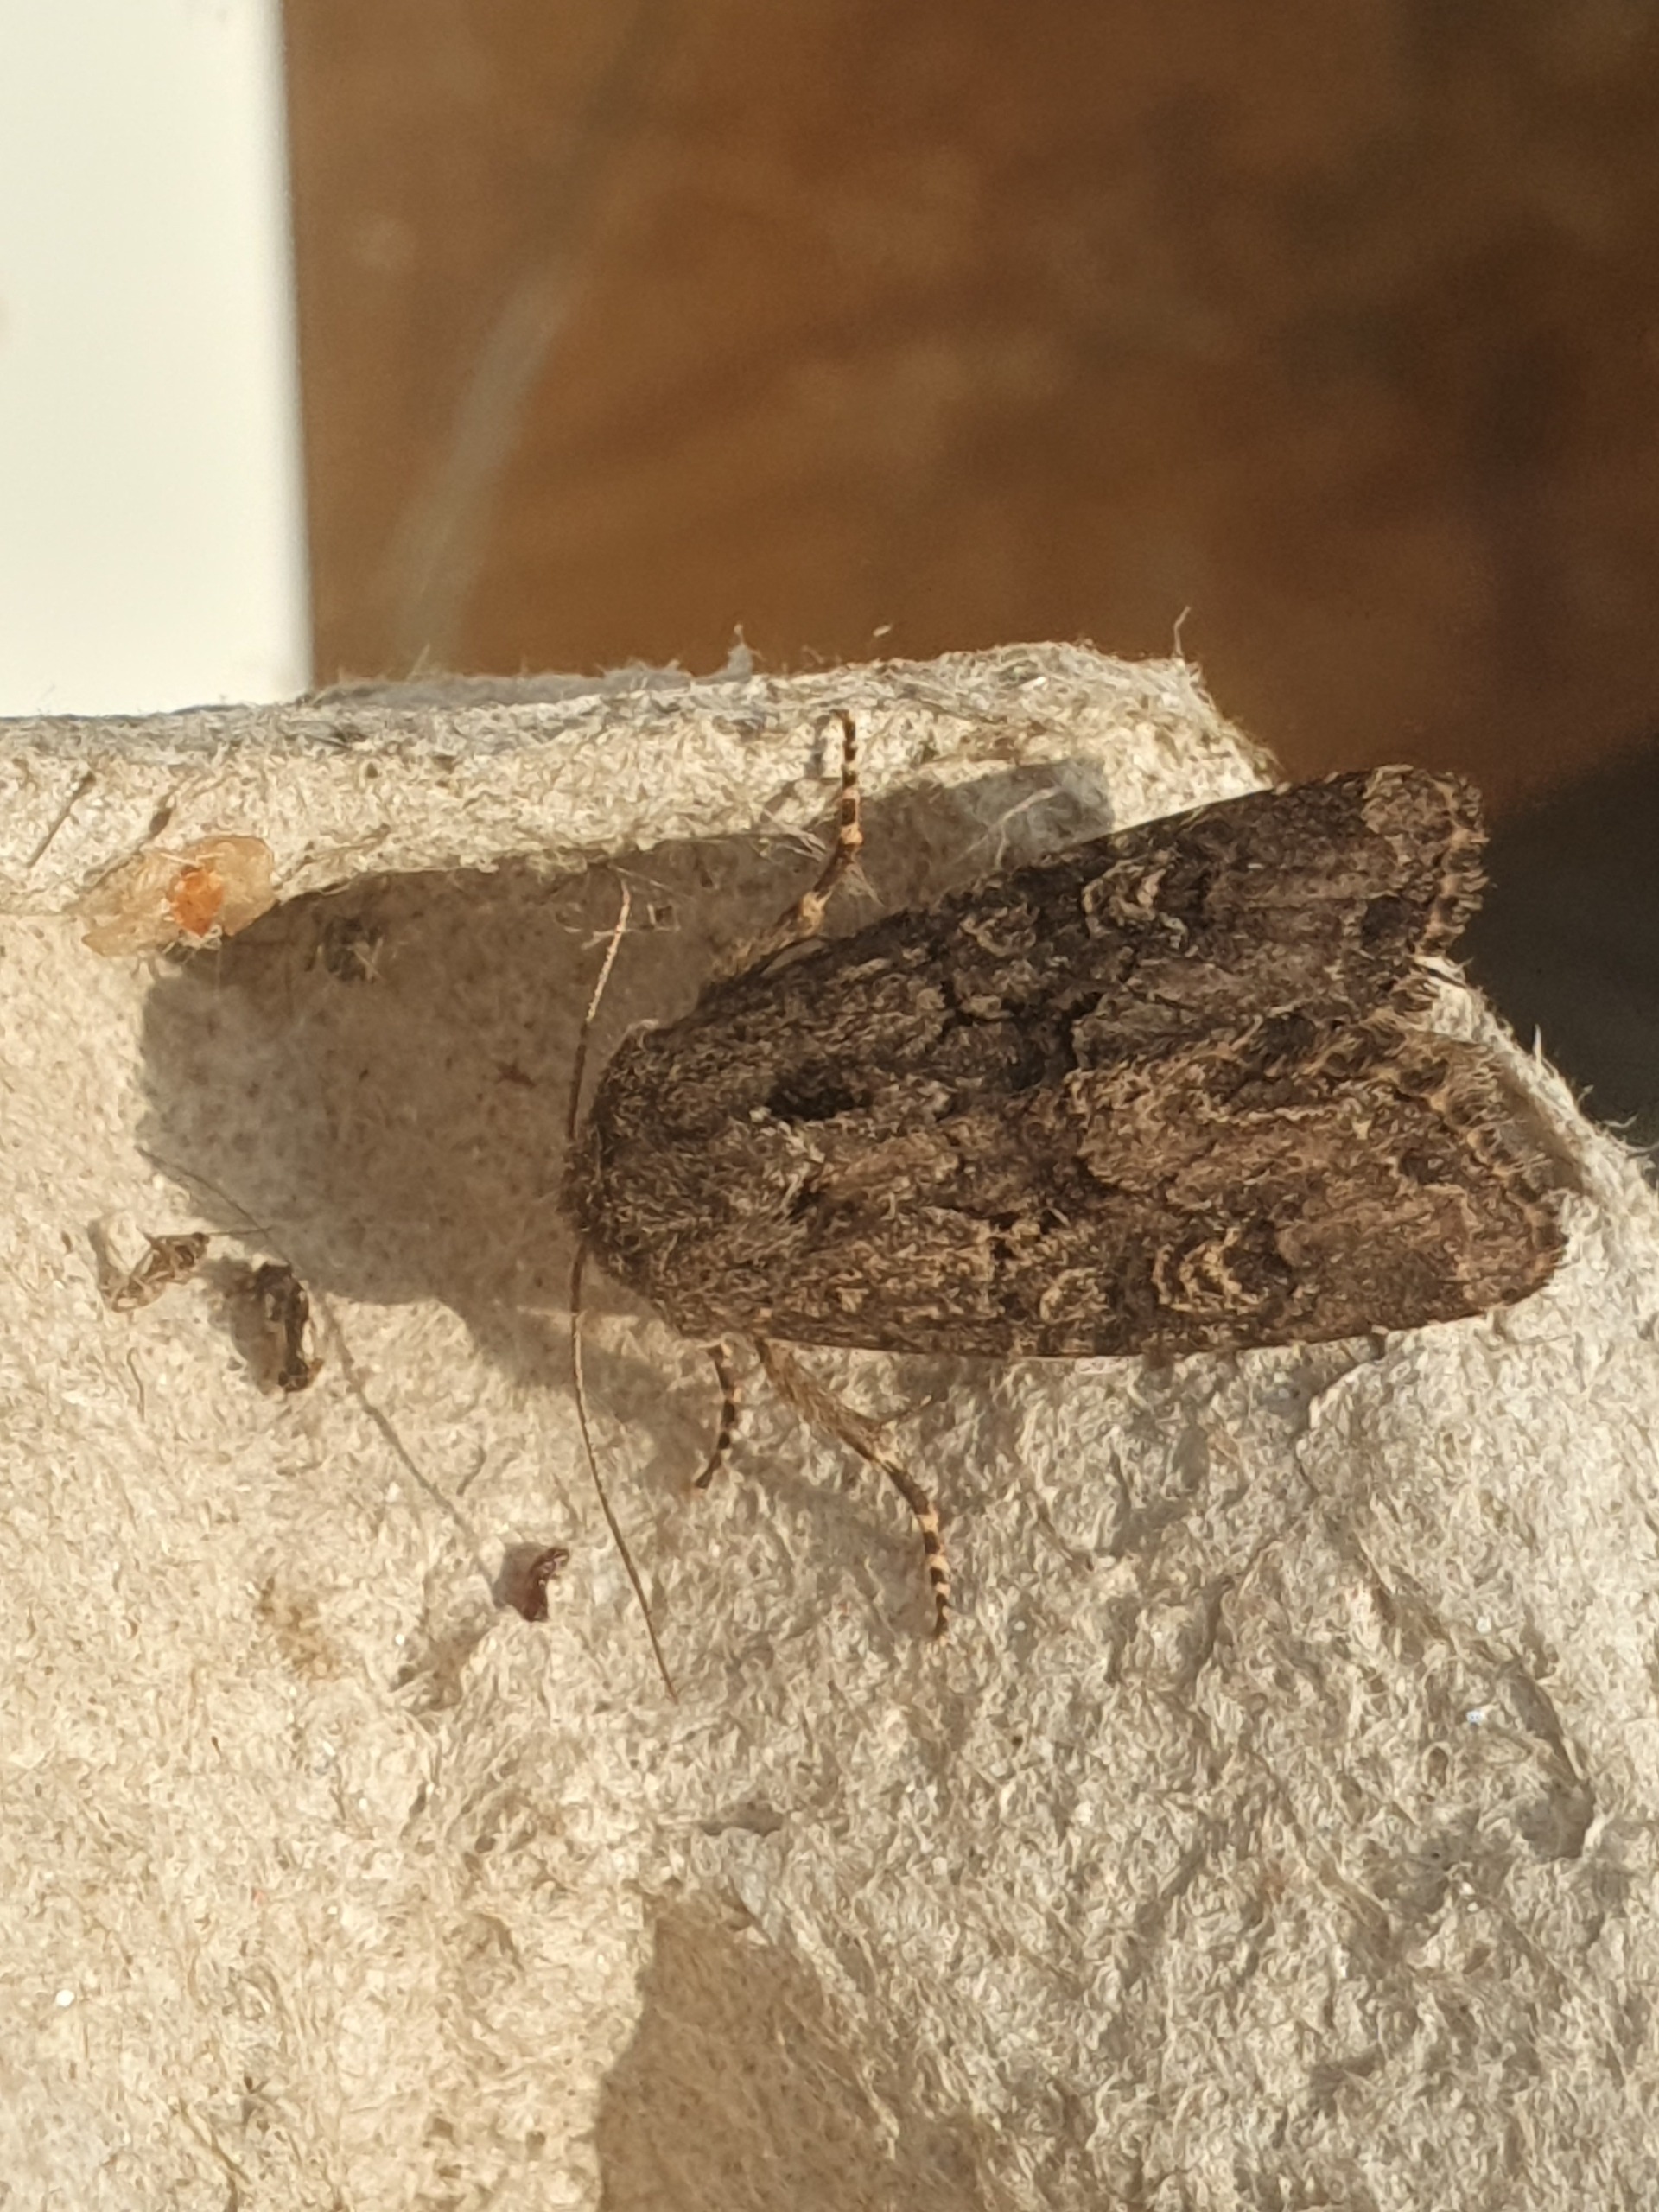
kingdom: Animalia
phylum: Arthropoda
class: Insecta
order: Lepidoptera
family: Noctuidae
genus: Luperina
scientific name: Luperina testacea
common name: Frøgræsugle
